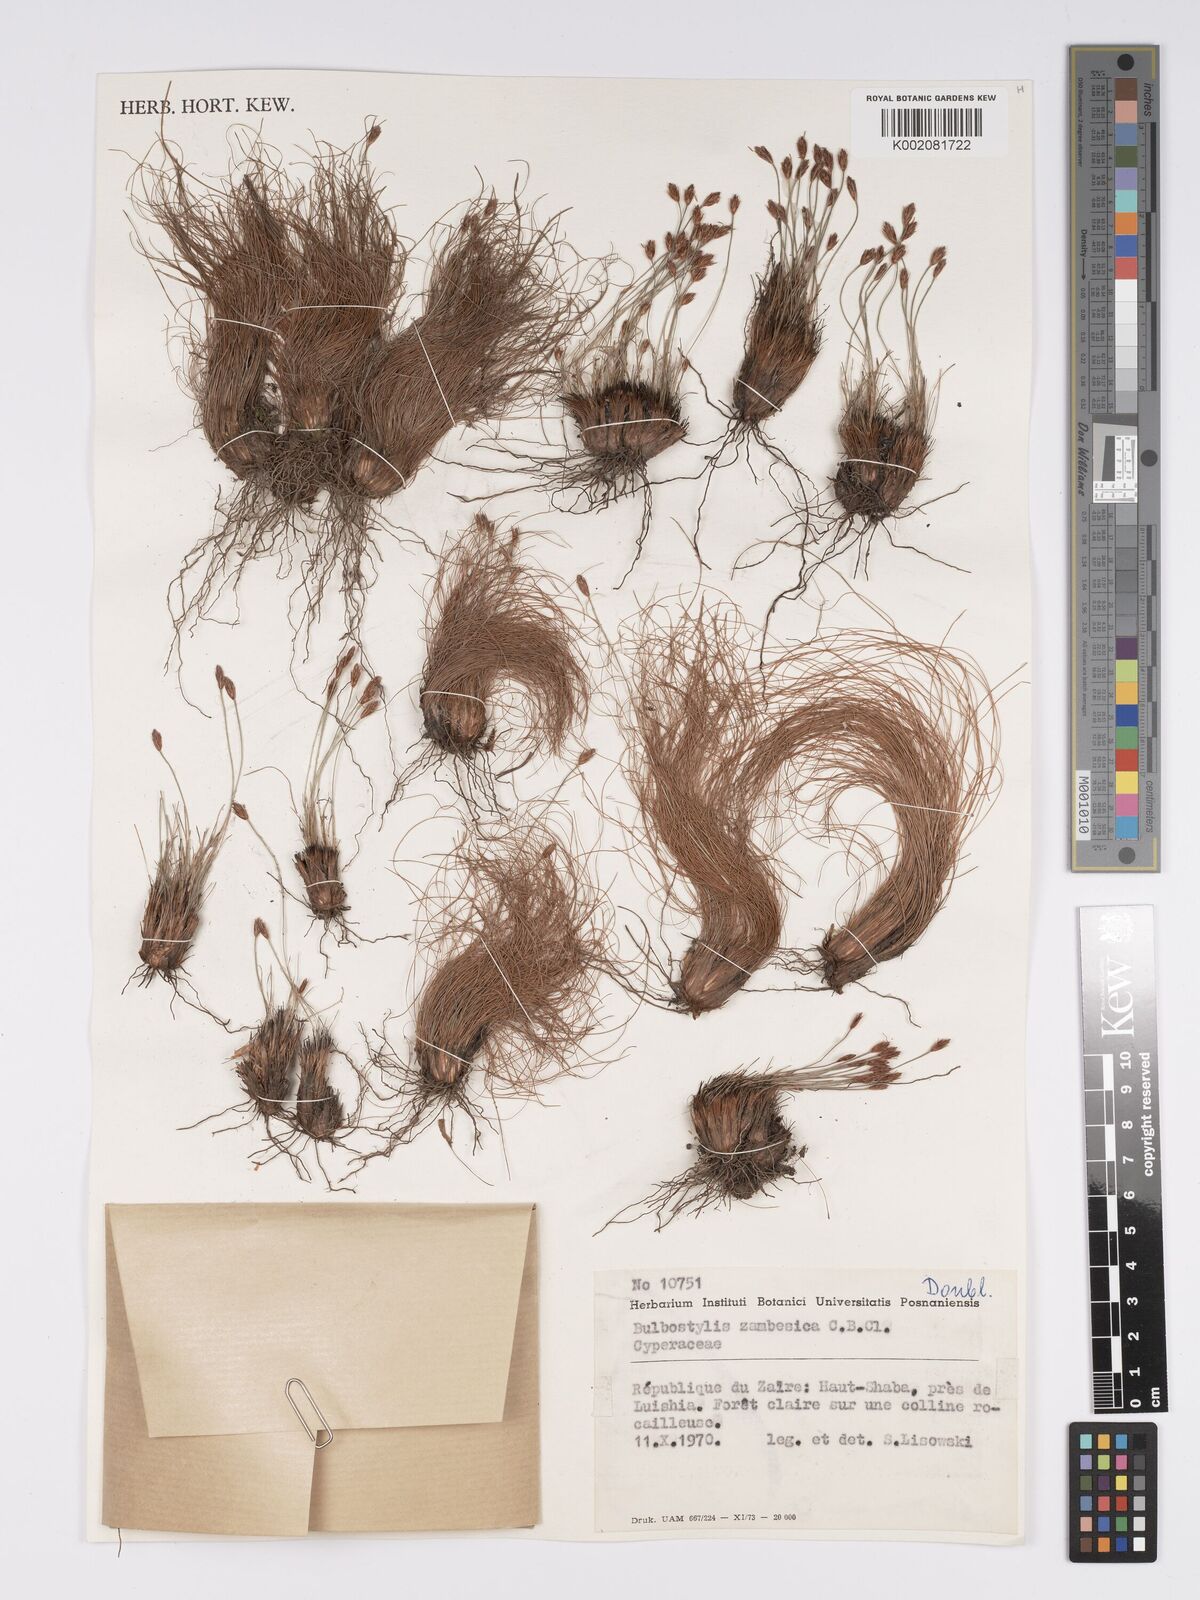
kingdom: Plantae
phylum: Tracheophyta
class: Liliopsida
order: Poales
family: Cyperaceae
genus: Bulbostylis
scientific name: Bulbostylis macra
